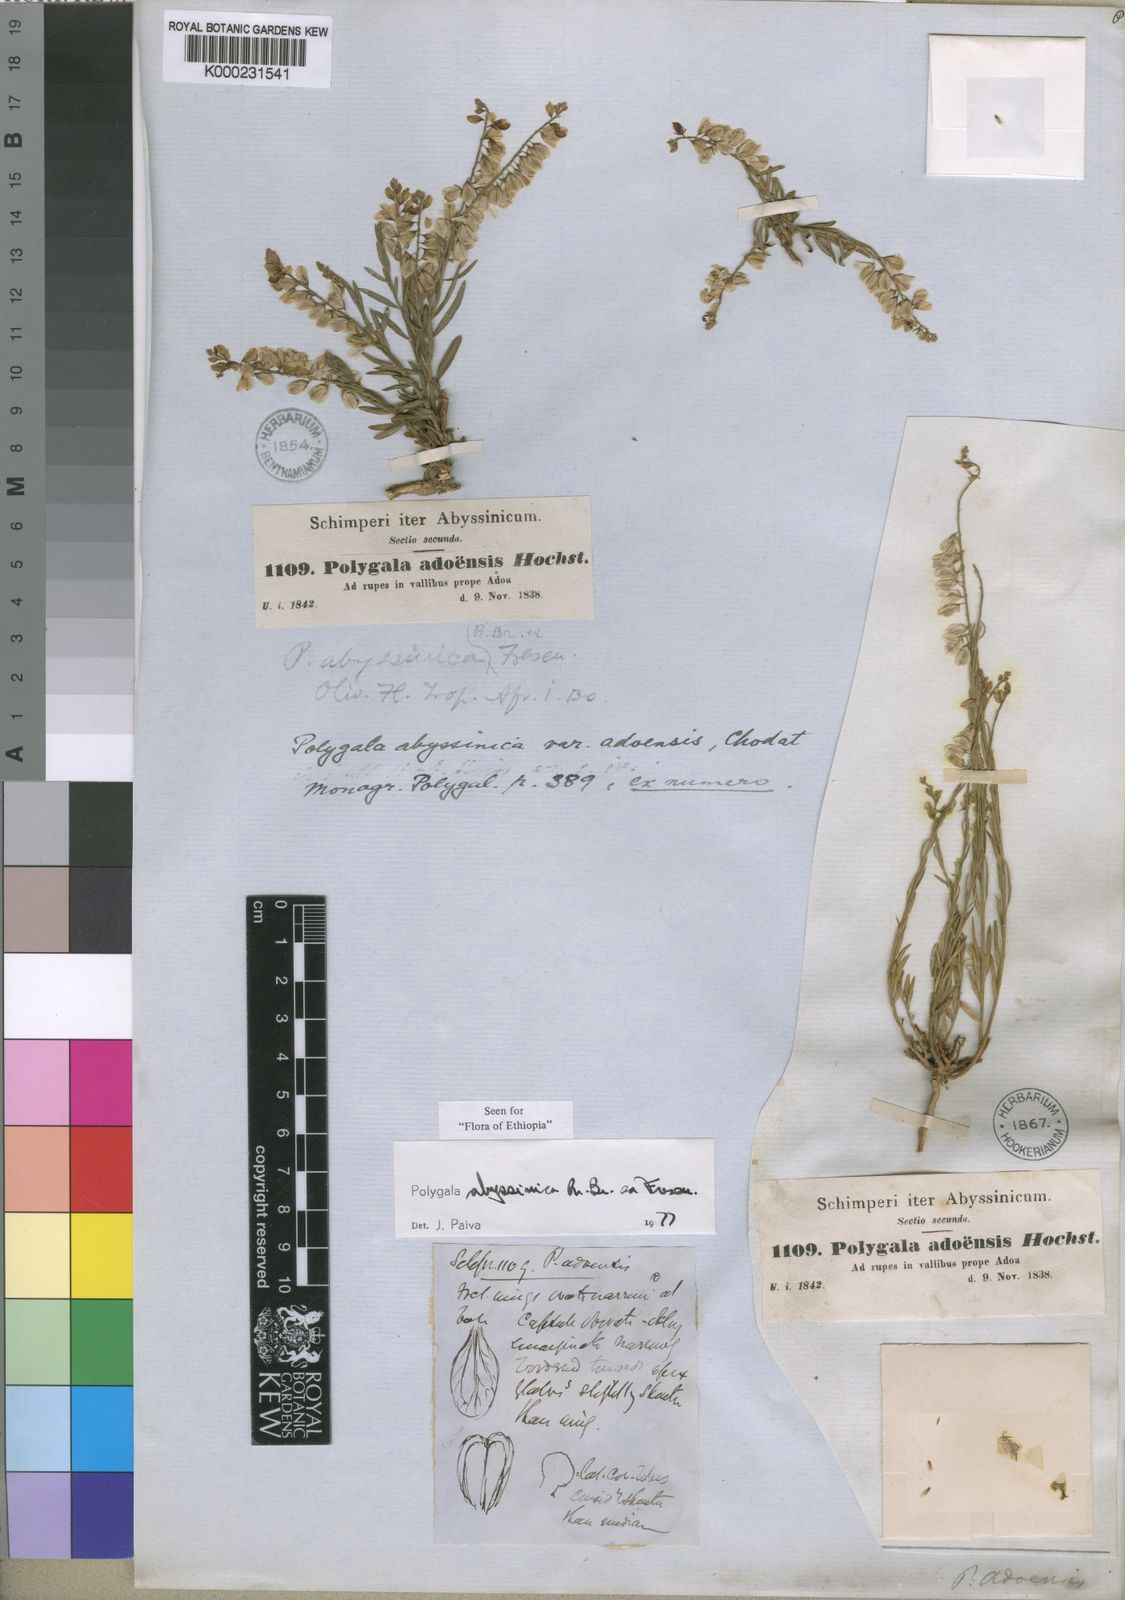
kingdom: Plantae
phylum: Tracheophyta
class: Magnoliopsida
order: Fabales
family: Polygalaceae
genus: Polygala
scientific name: Polygala abyssinica
